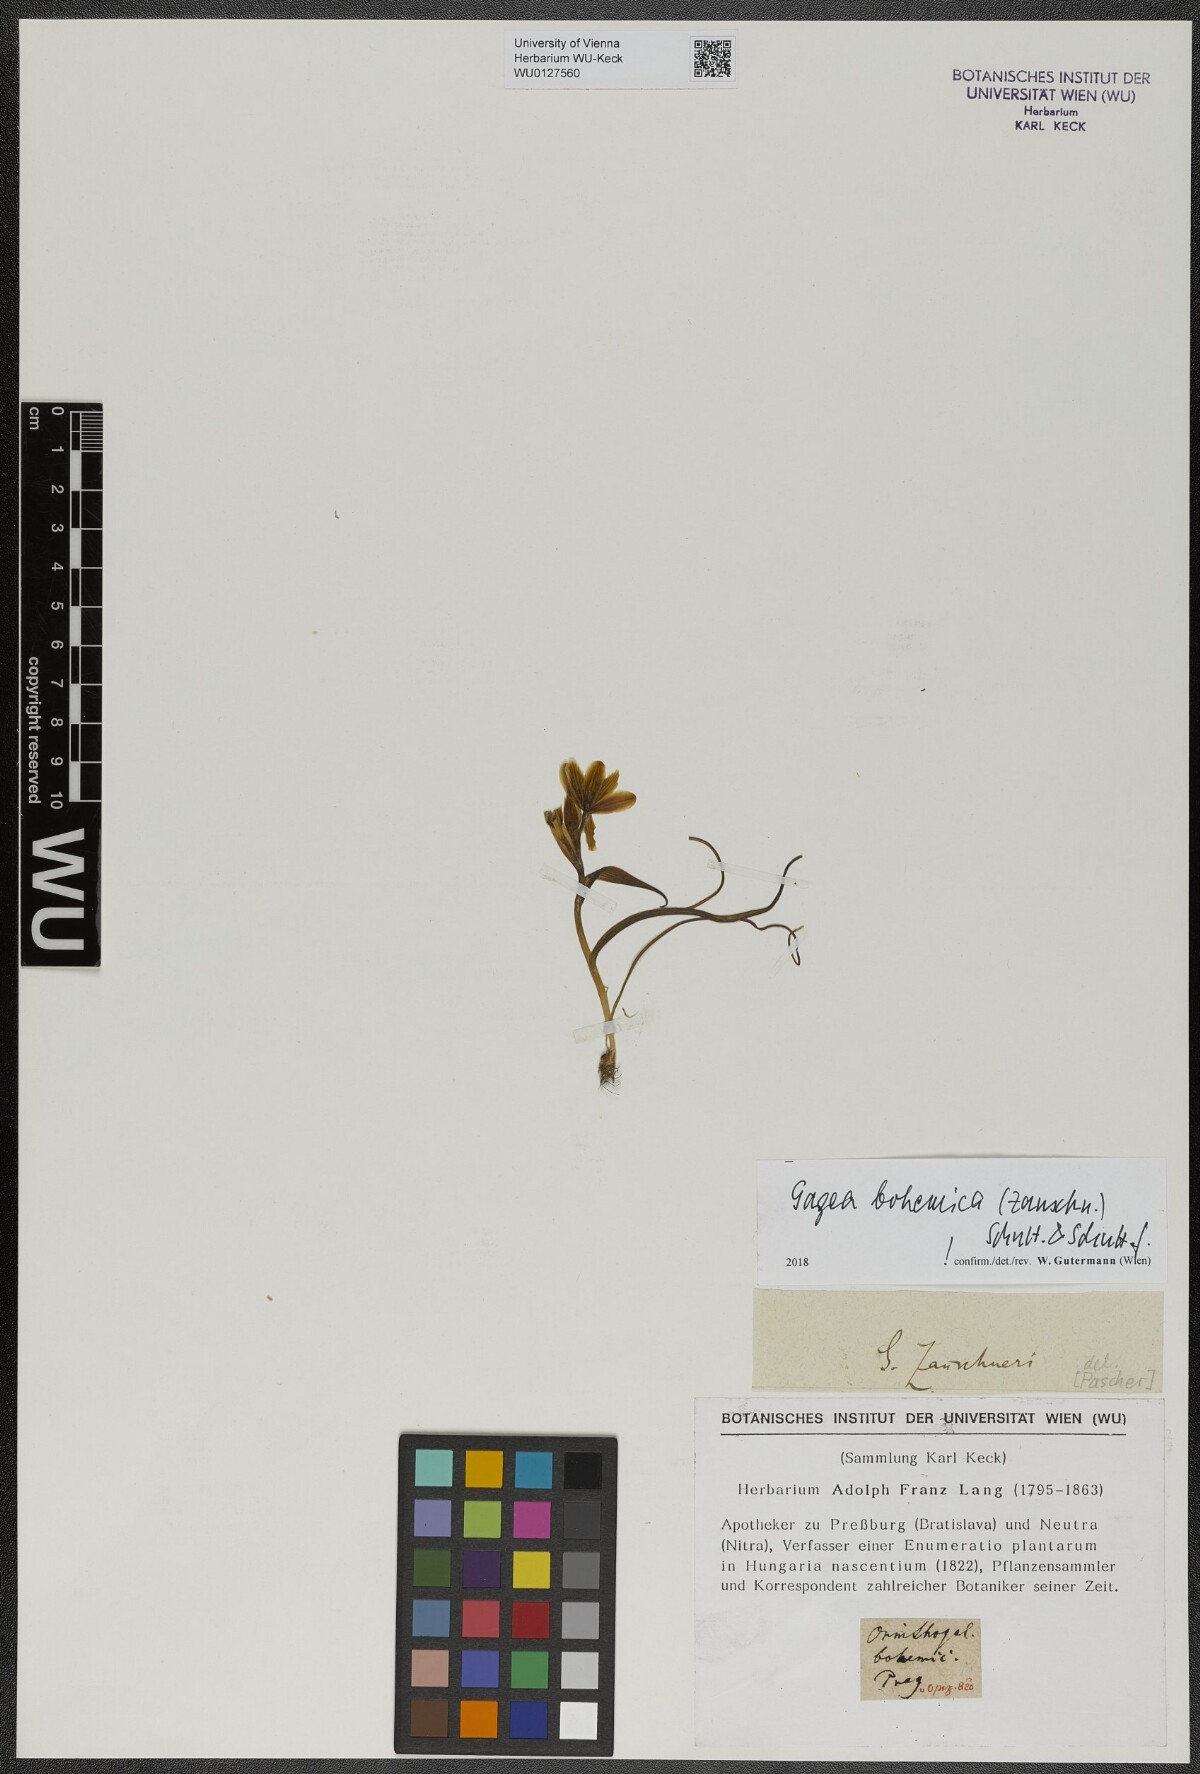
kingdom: Plantae
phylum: Tracheophyta
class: Liliopsida
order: Liliales
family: Liliaceae
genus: Gagea
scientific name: Gagea bohemica
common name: Early star-of-bethlehem
